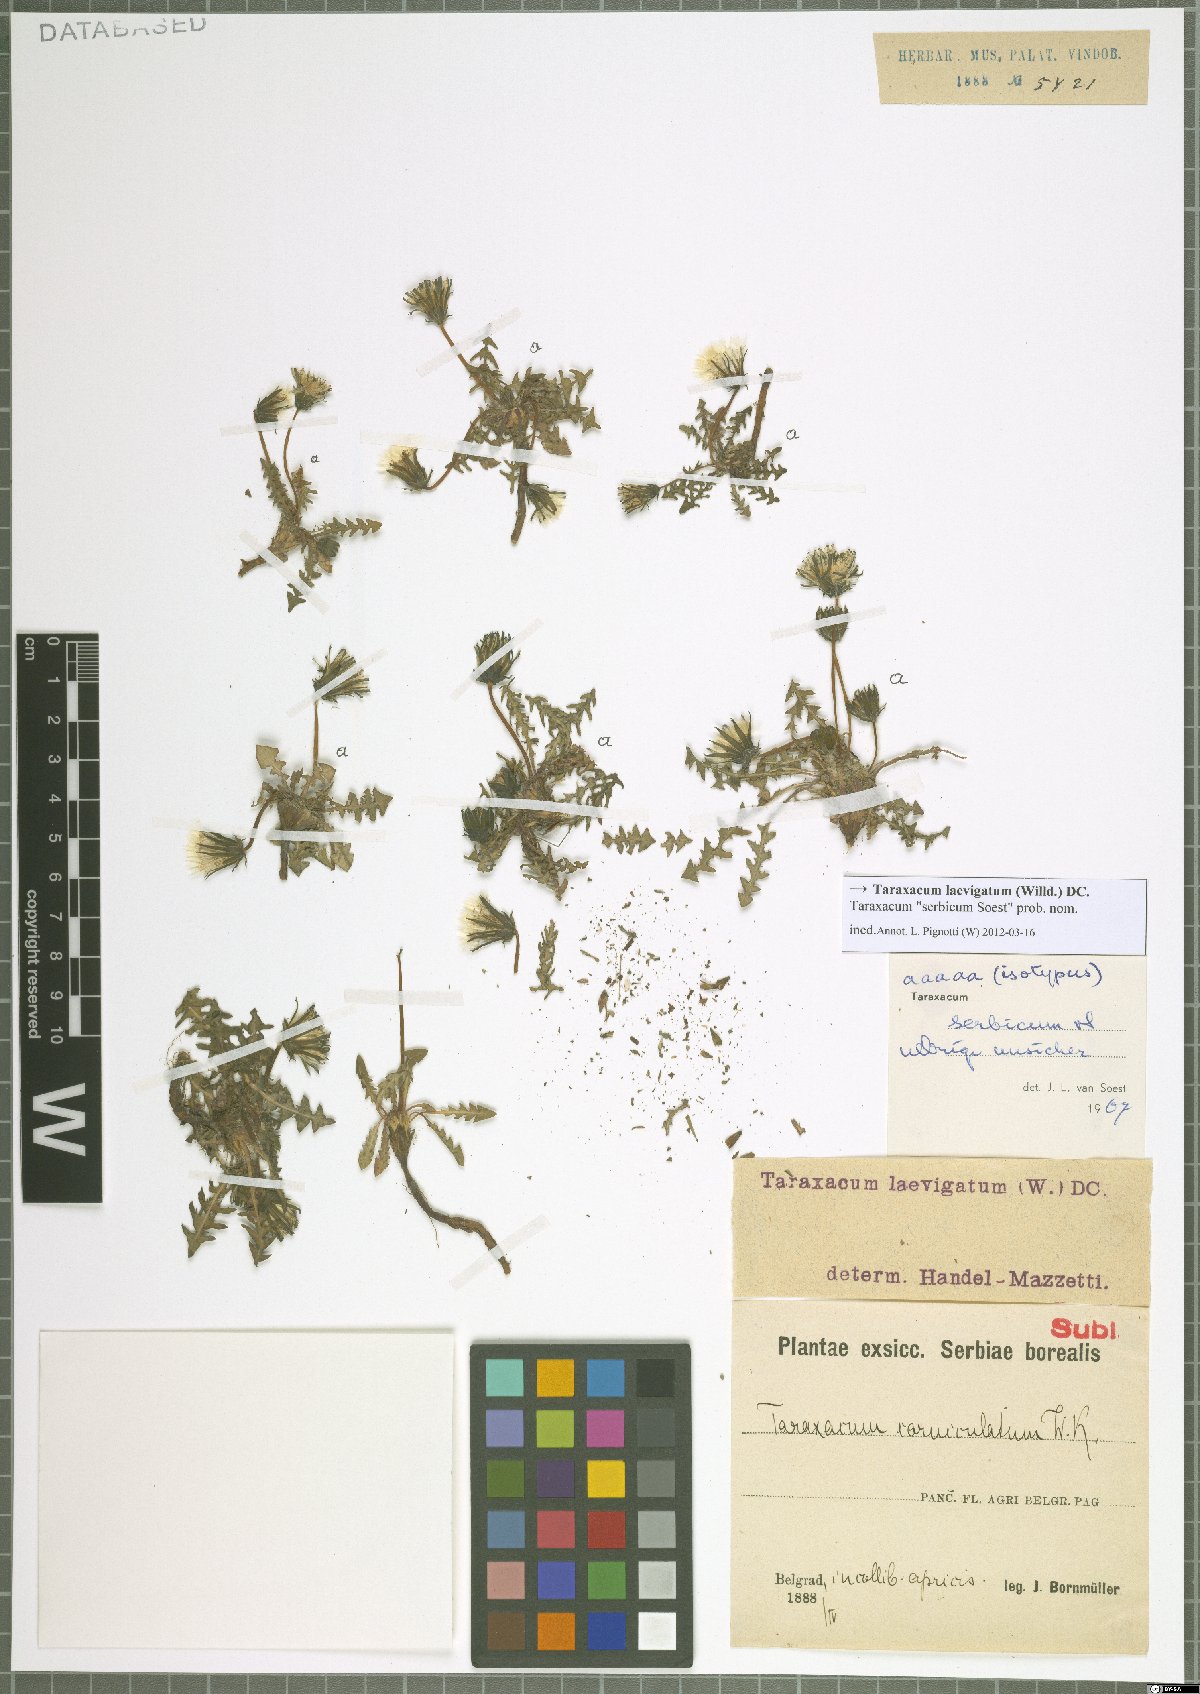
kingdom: Plantae
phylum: Tracheophyta
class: Magnoliopsida
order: Asterales
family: Asteraceae
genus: Taraxacum
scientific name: Taraxacum erythrospermum
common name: Rock dandelion
